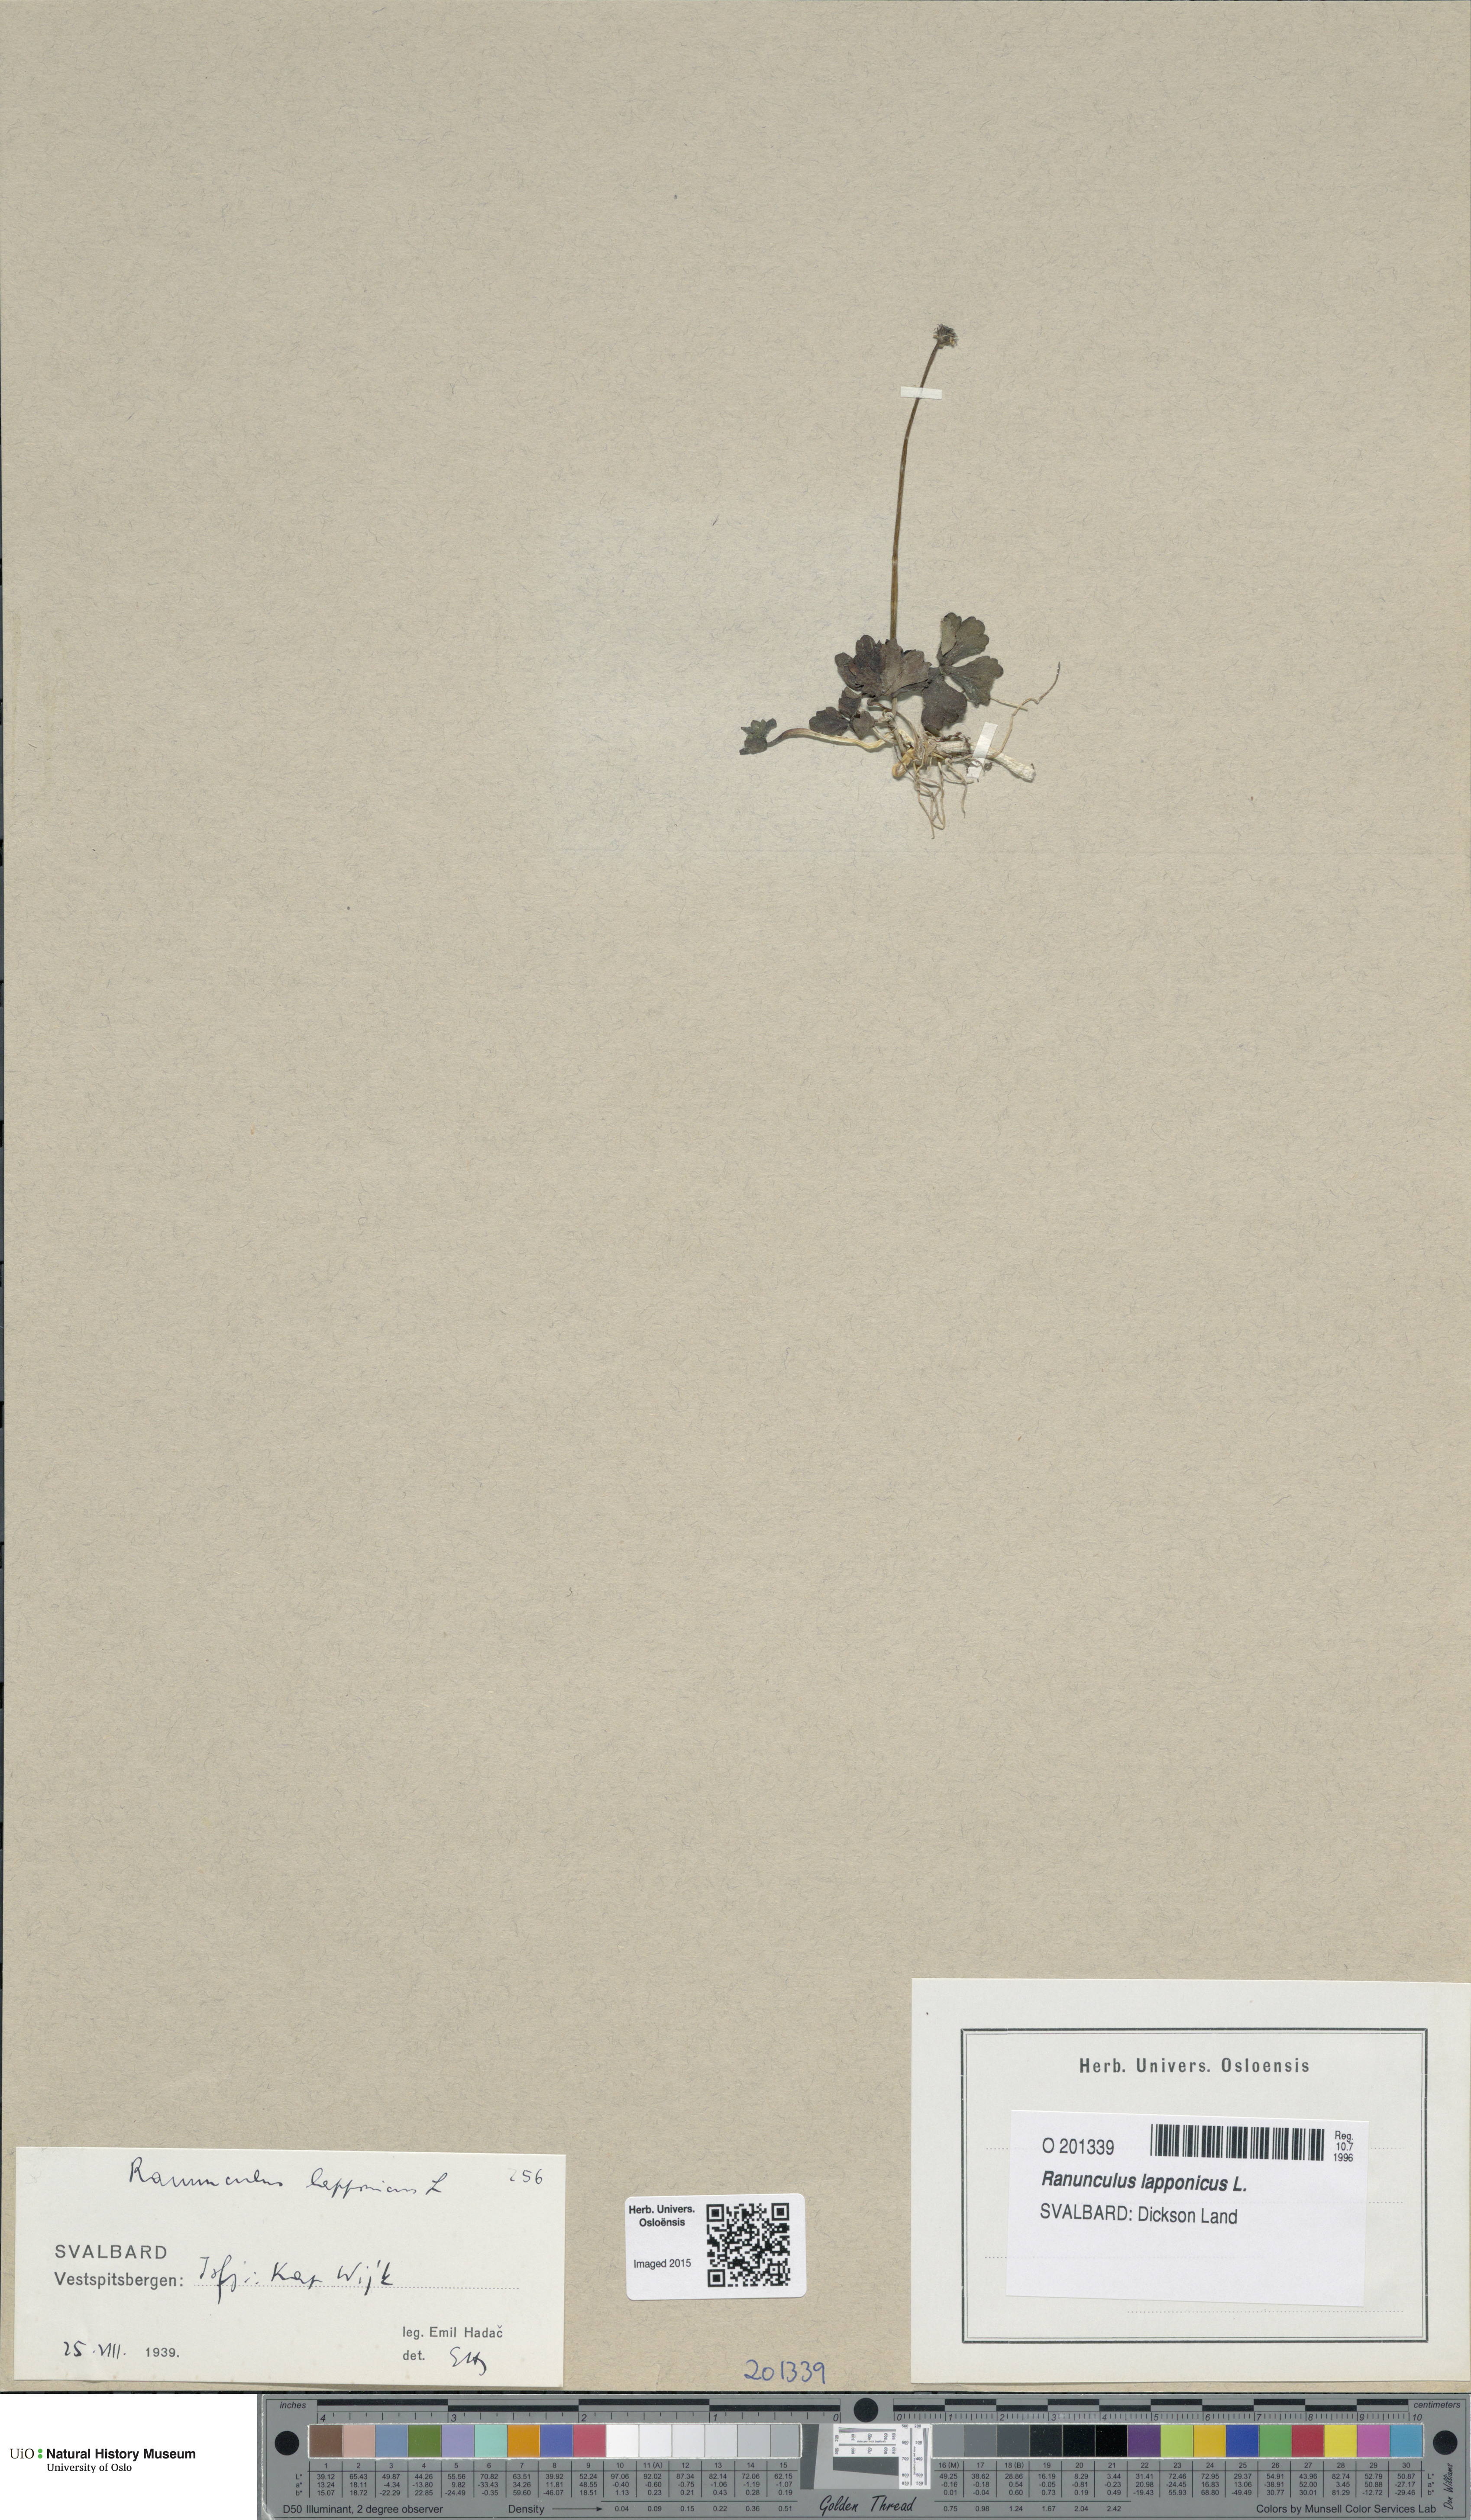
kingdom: Plantae
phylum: Tracheophyta
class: Magnoliopsida
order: Ranunculales
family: Ranunculaceae
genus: Coptidium
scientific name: Coptidium lapponicum
